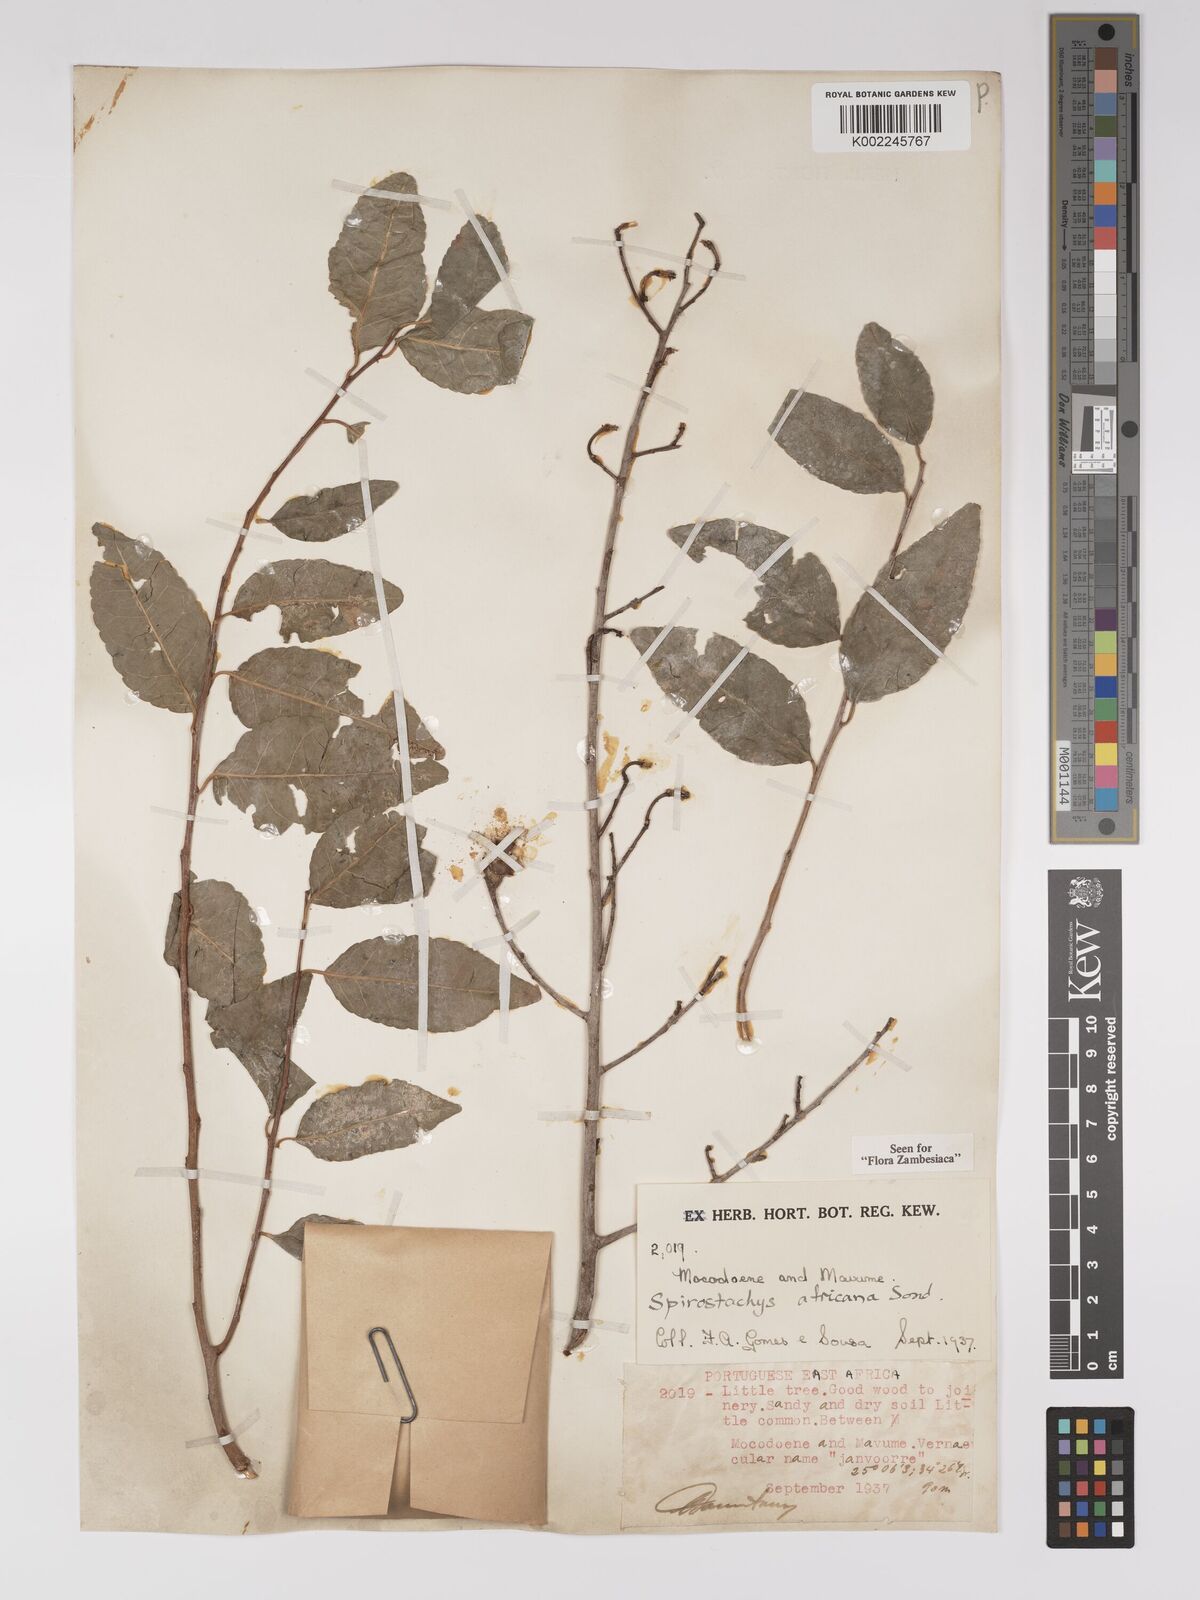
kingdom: Plantae
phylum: Tracheophyta
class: Magnoliopsida
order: Malpighiales
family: Euphorbiaceae
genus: Spirostachys
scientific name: Spirostachys africana
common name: Tamboti
